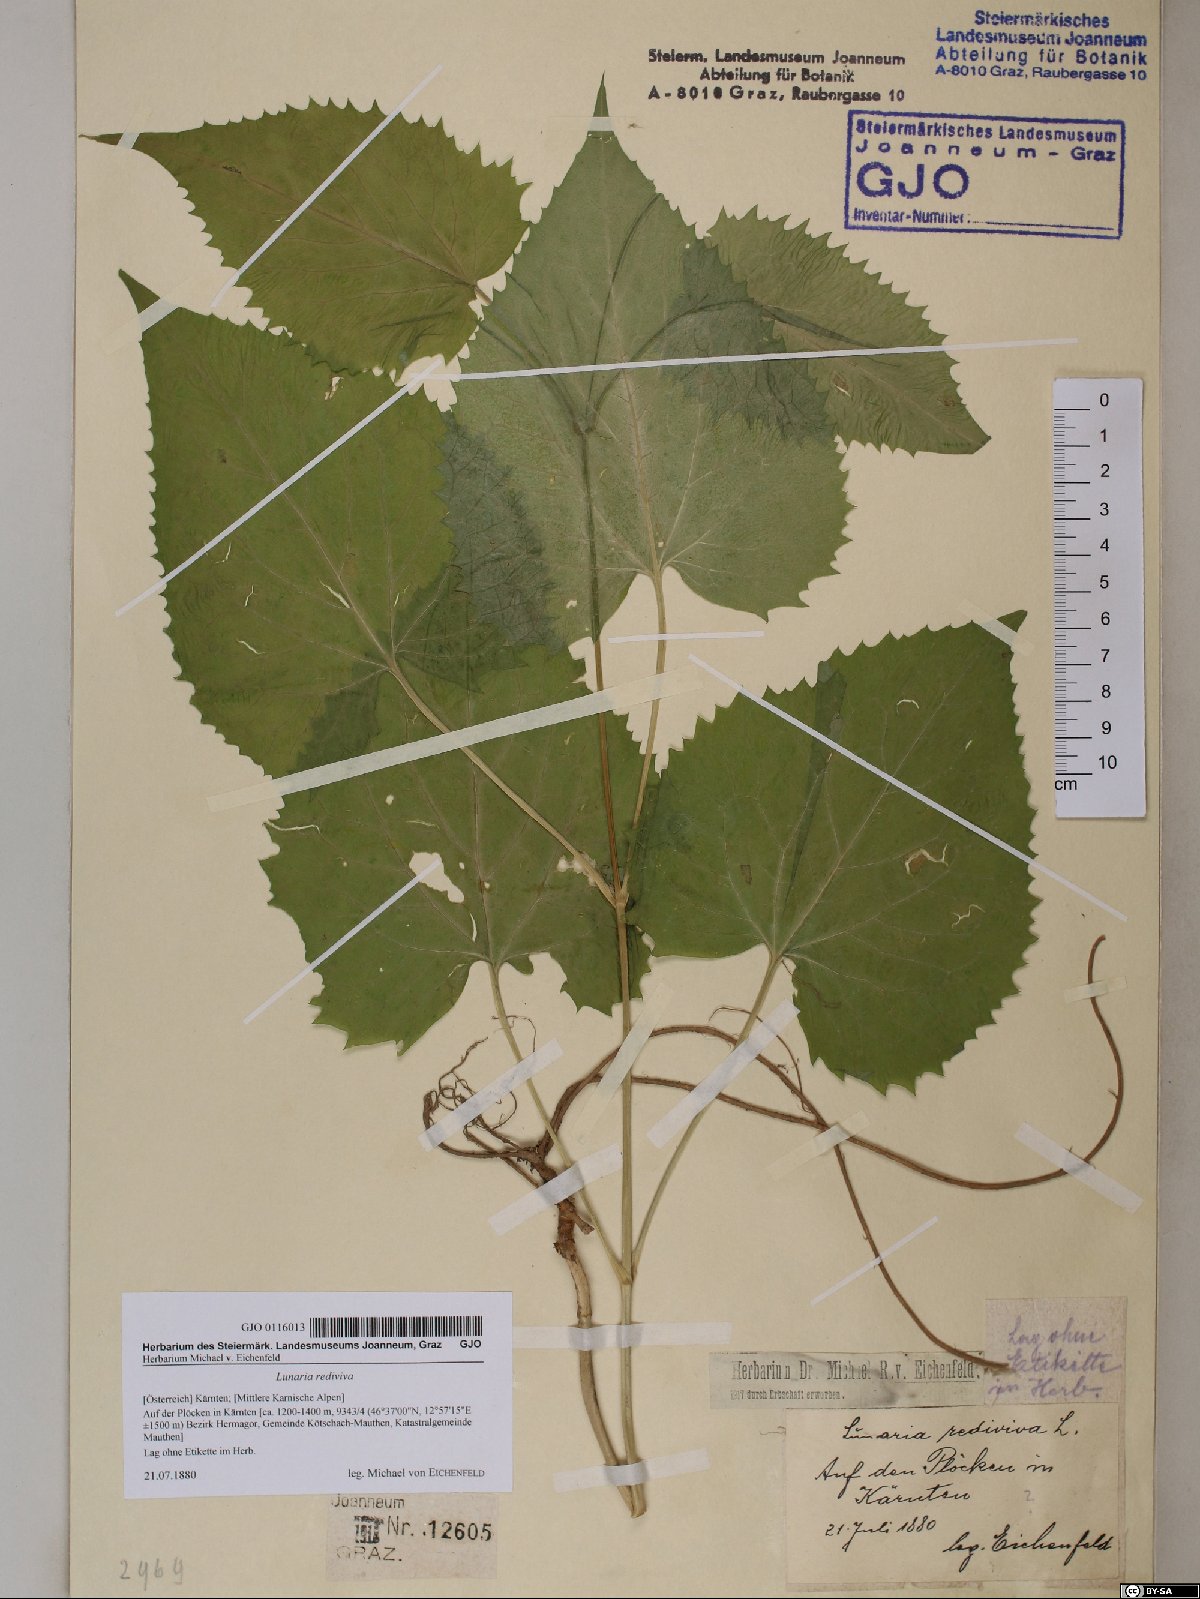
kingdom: Plantae
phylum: Tracheophyta
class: Magnoliopsida
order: Brassicales
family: Brassicaceae
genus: Lunaria
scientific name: Lunaria rediviva
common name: Perennial honesty
